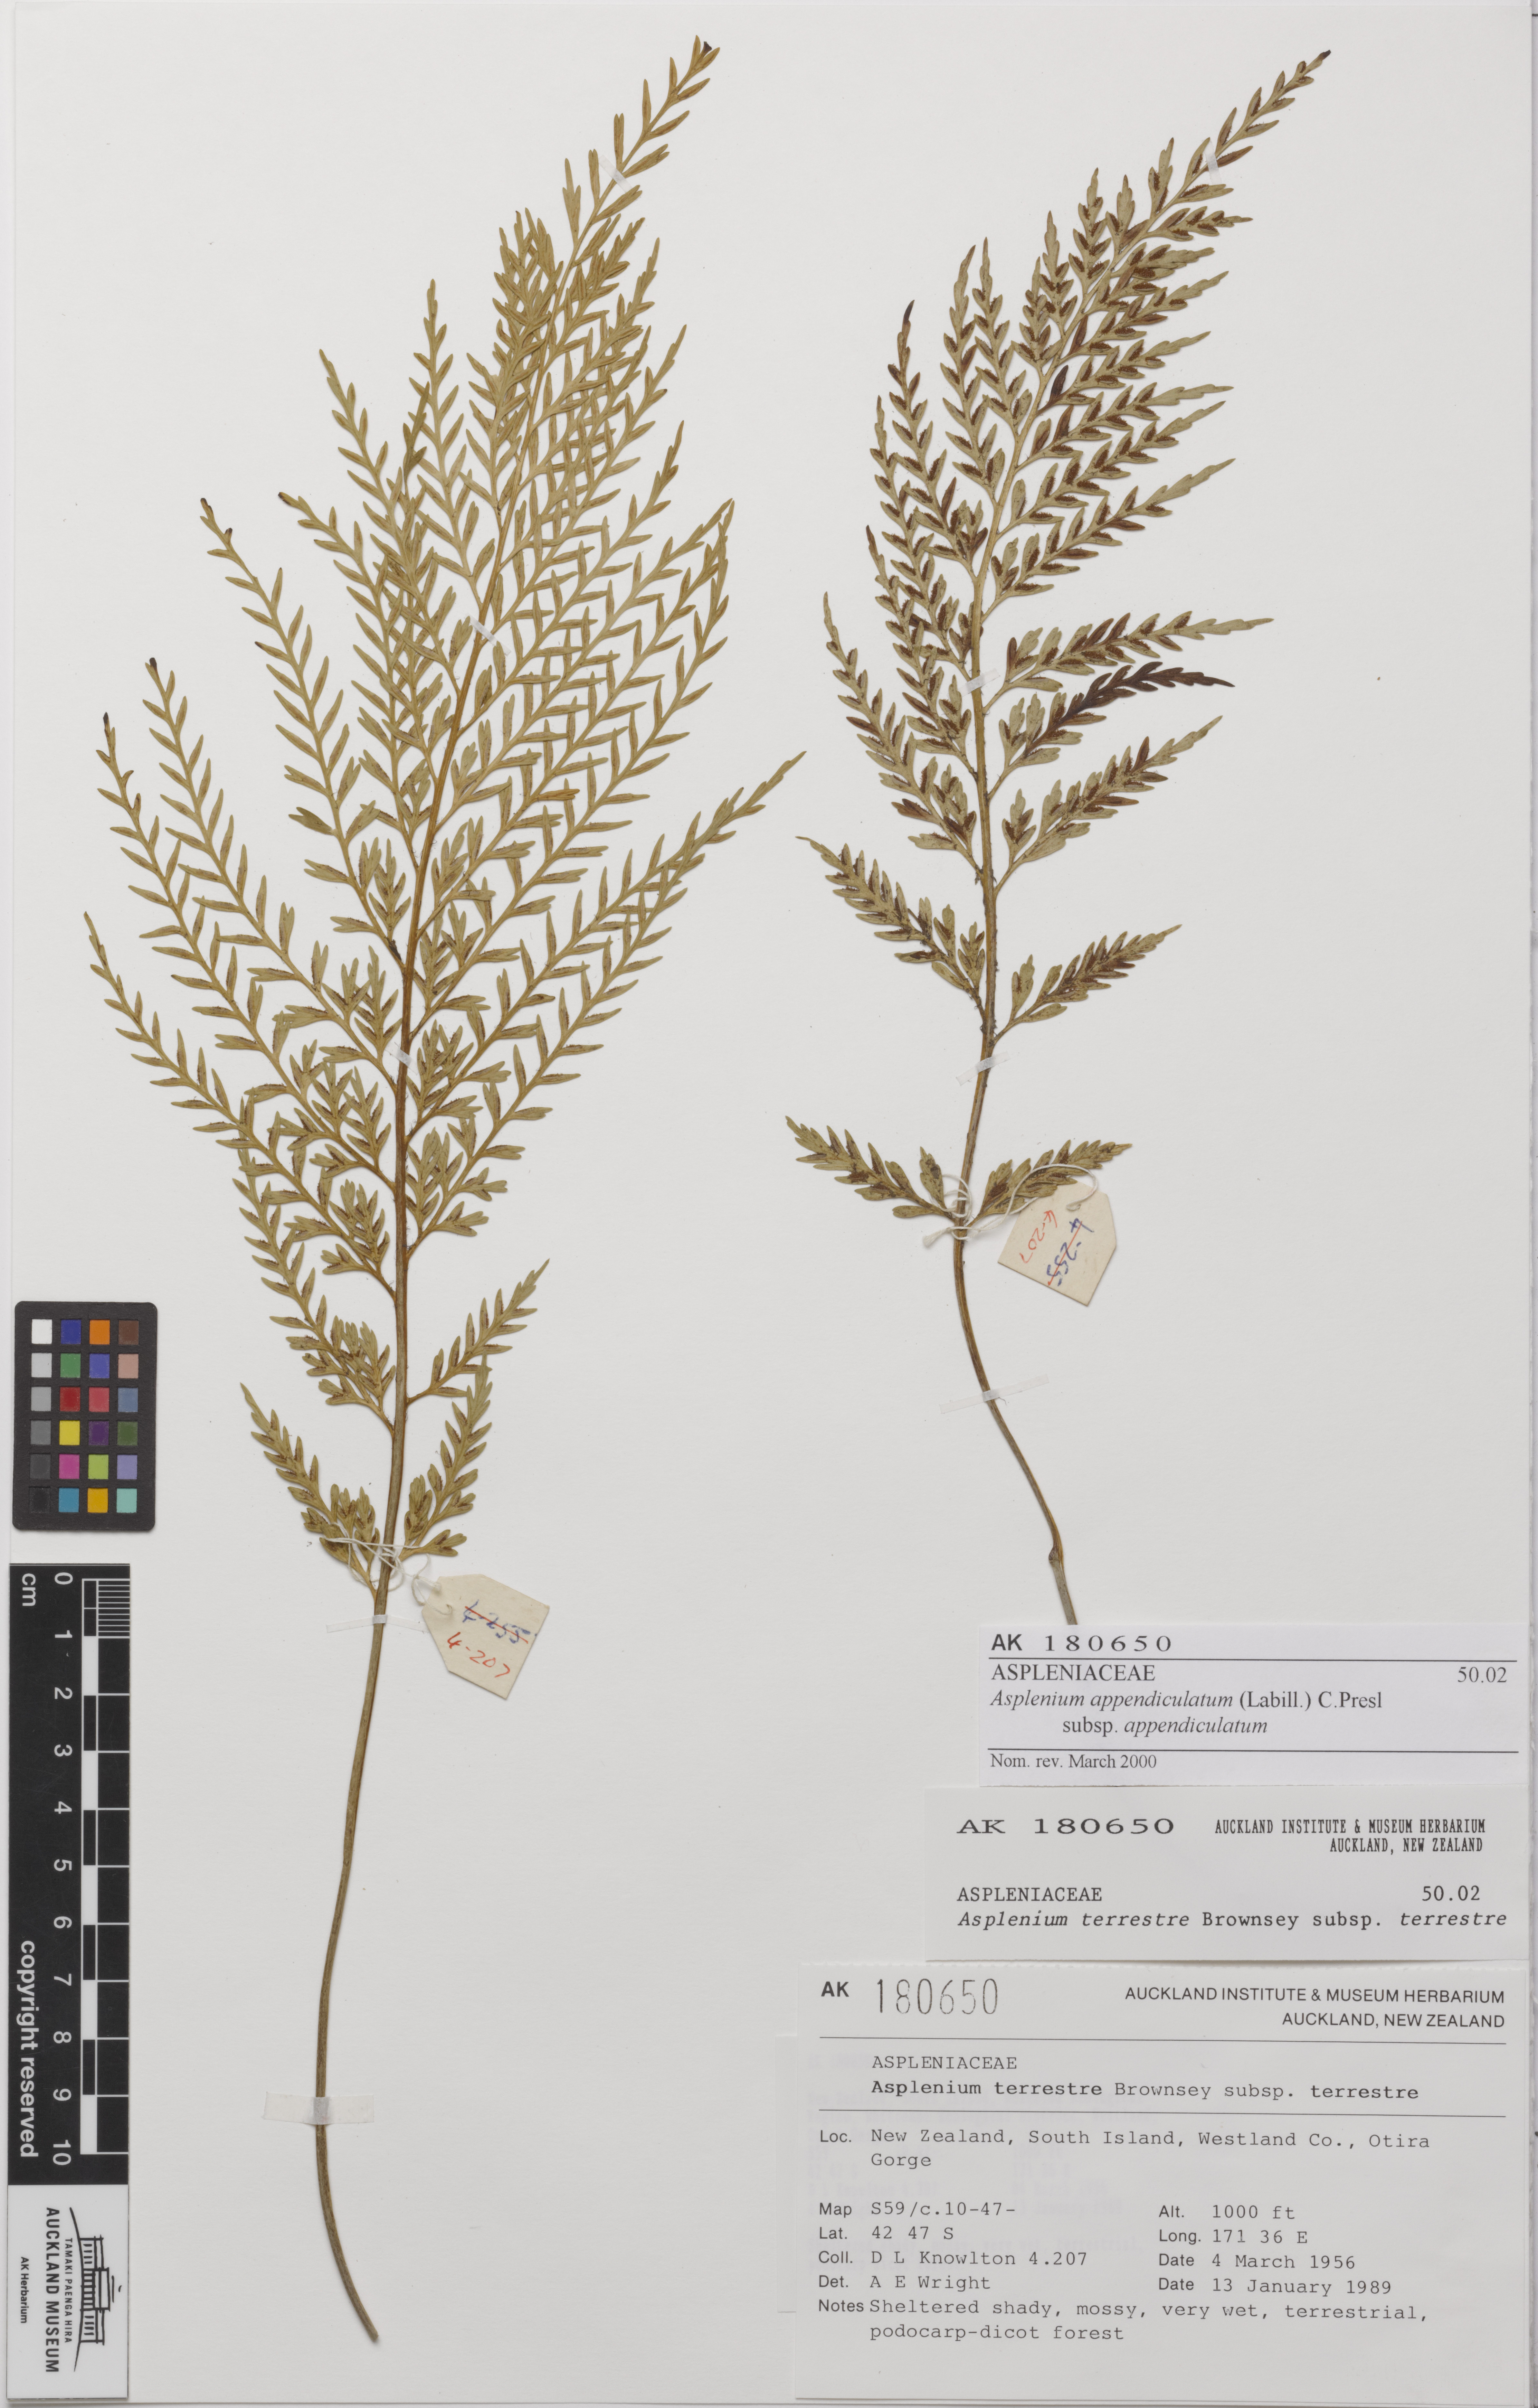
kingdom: Plantae
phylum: Tracheophyta
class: Polypodiopsida
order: Polypodiales
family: Aspleniaceae
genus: Asplenium
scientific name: Asplenium appendiculatum
